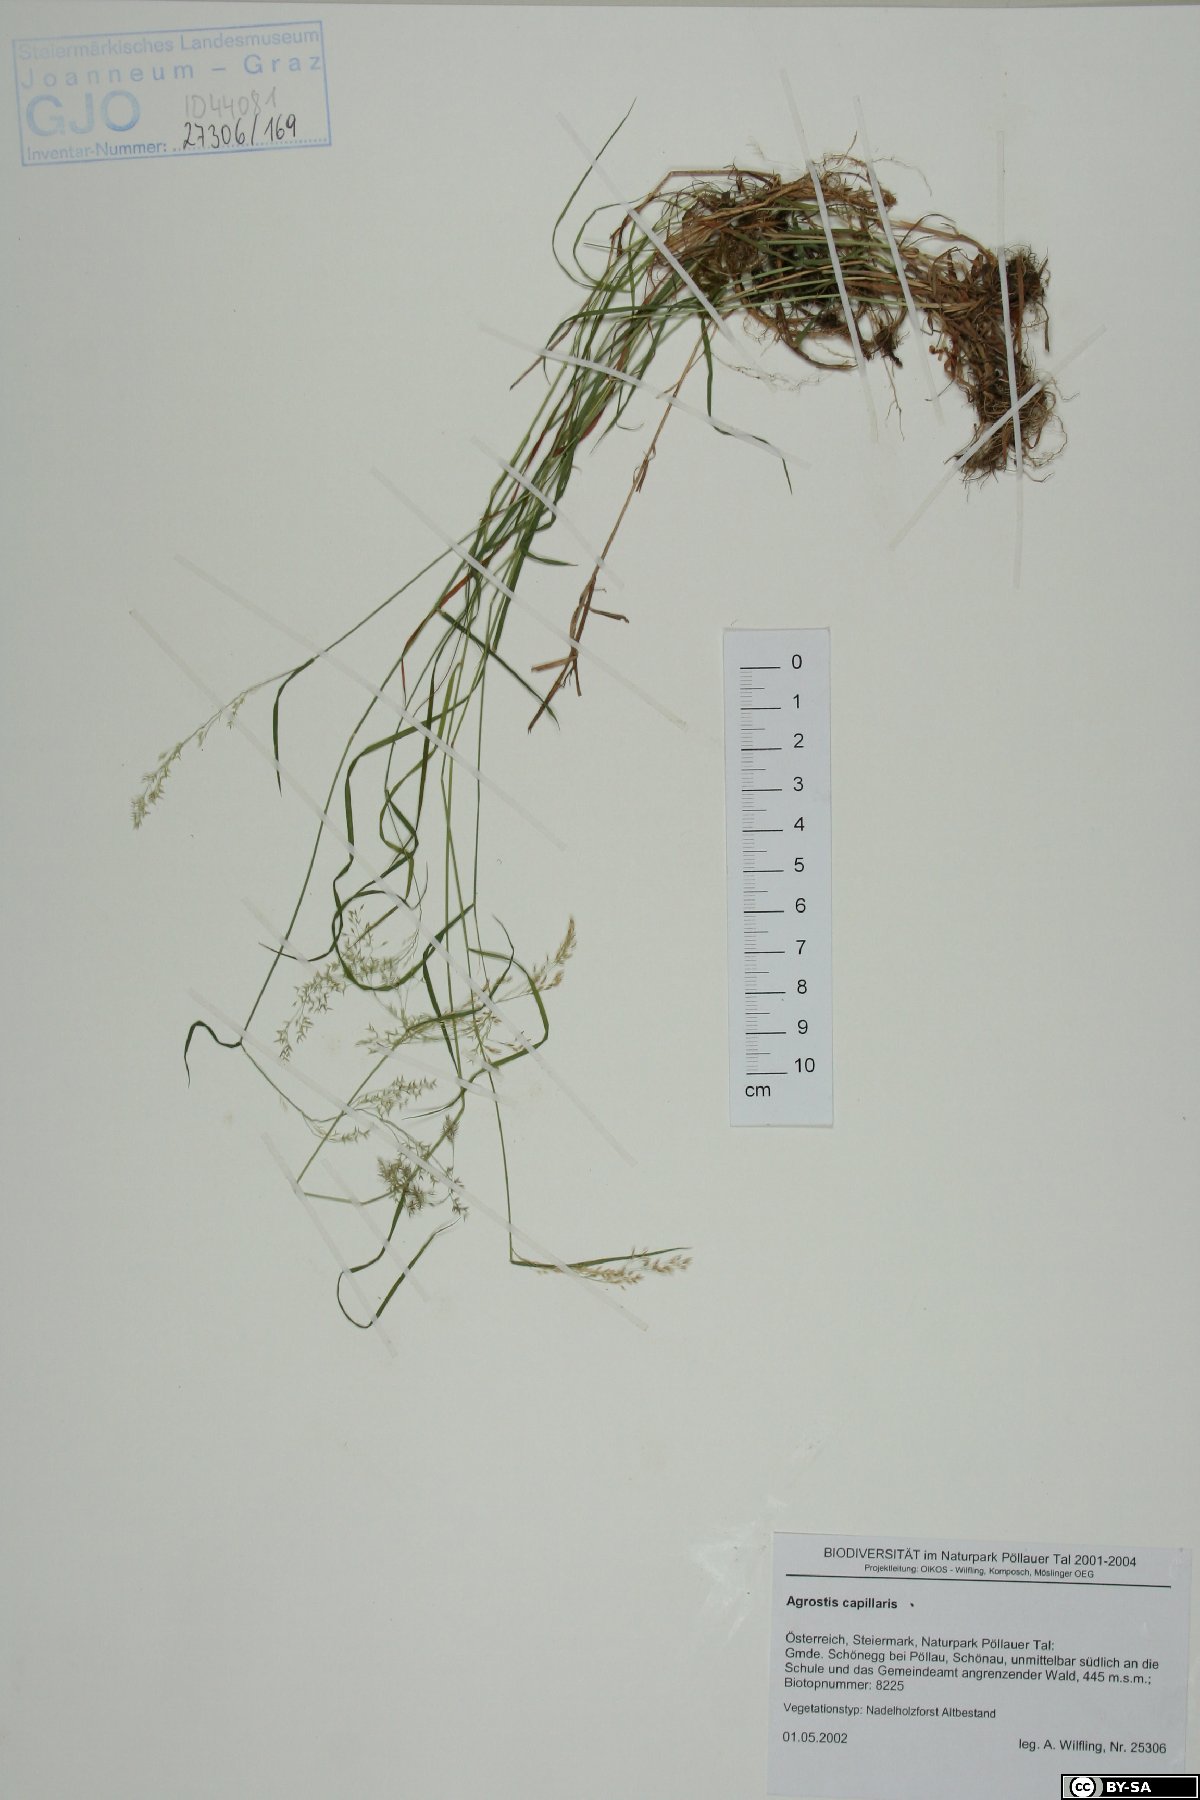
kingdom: Plantae
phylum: Tracheophyta
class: Liliopsida
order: Poales
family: Poaceae
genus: Agrostis
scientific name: Agrostis capillaris
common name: Colonial bentgrass
